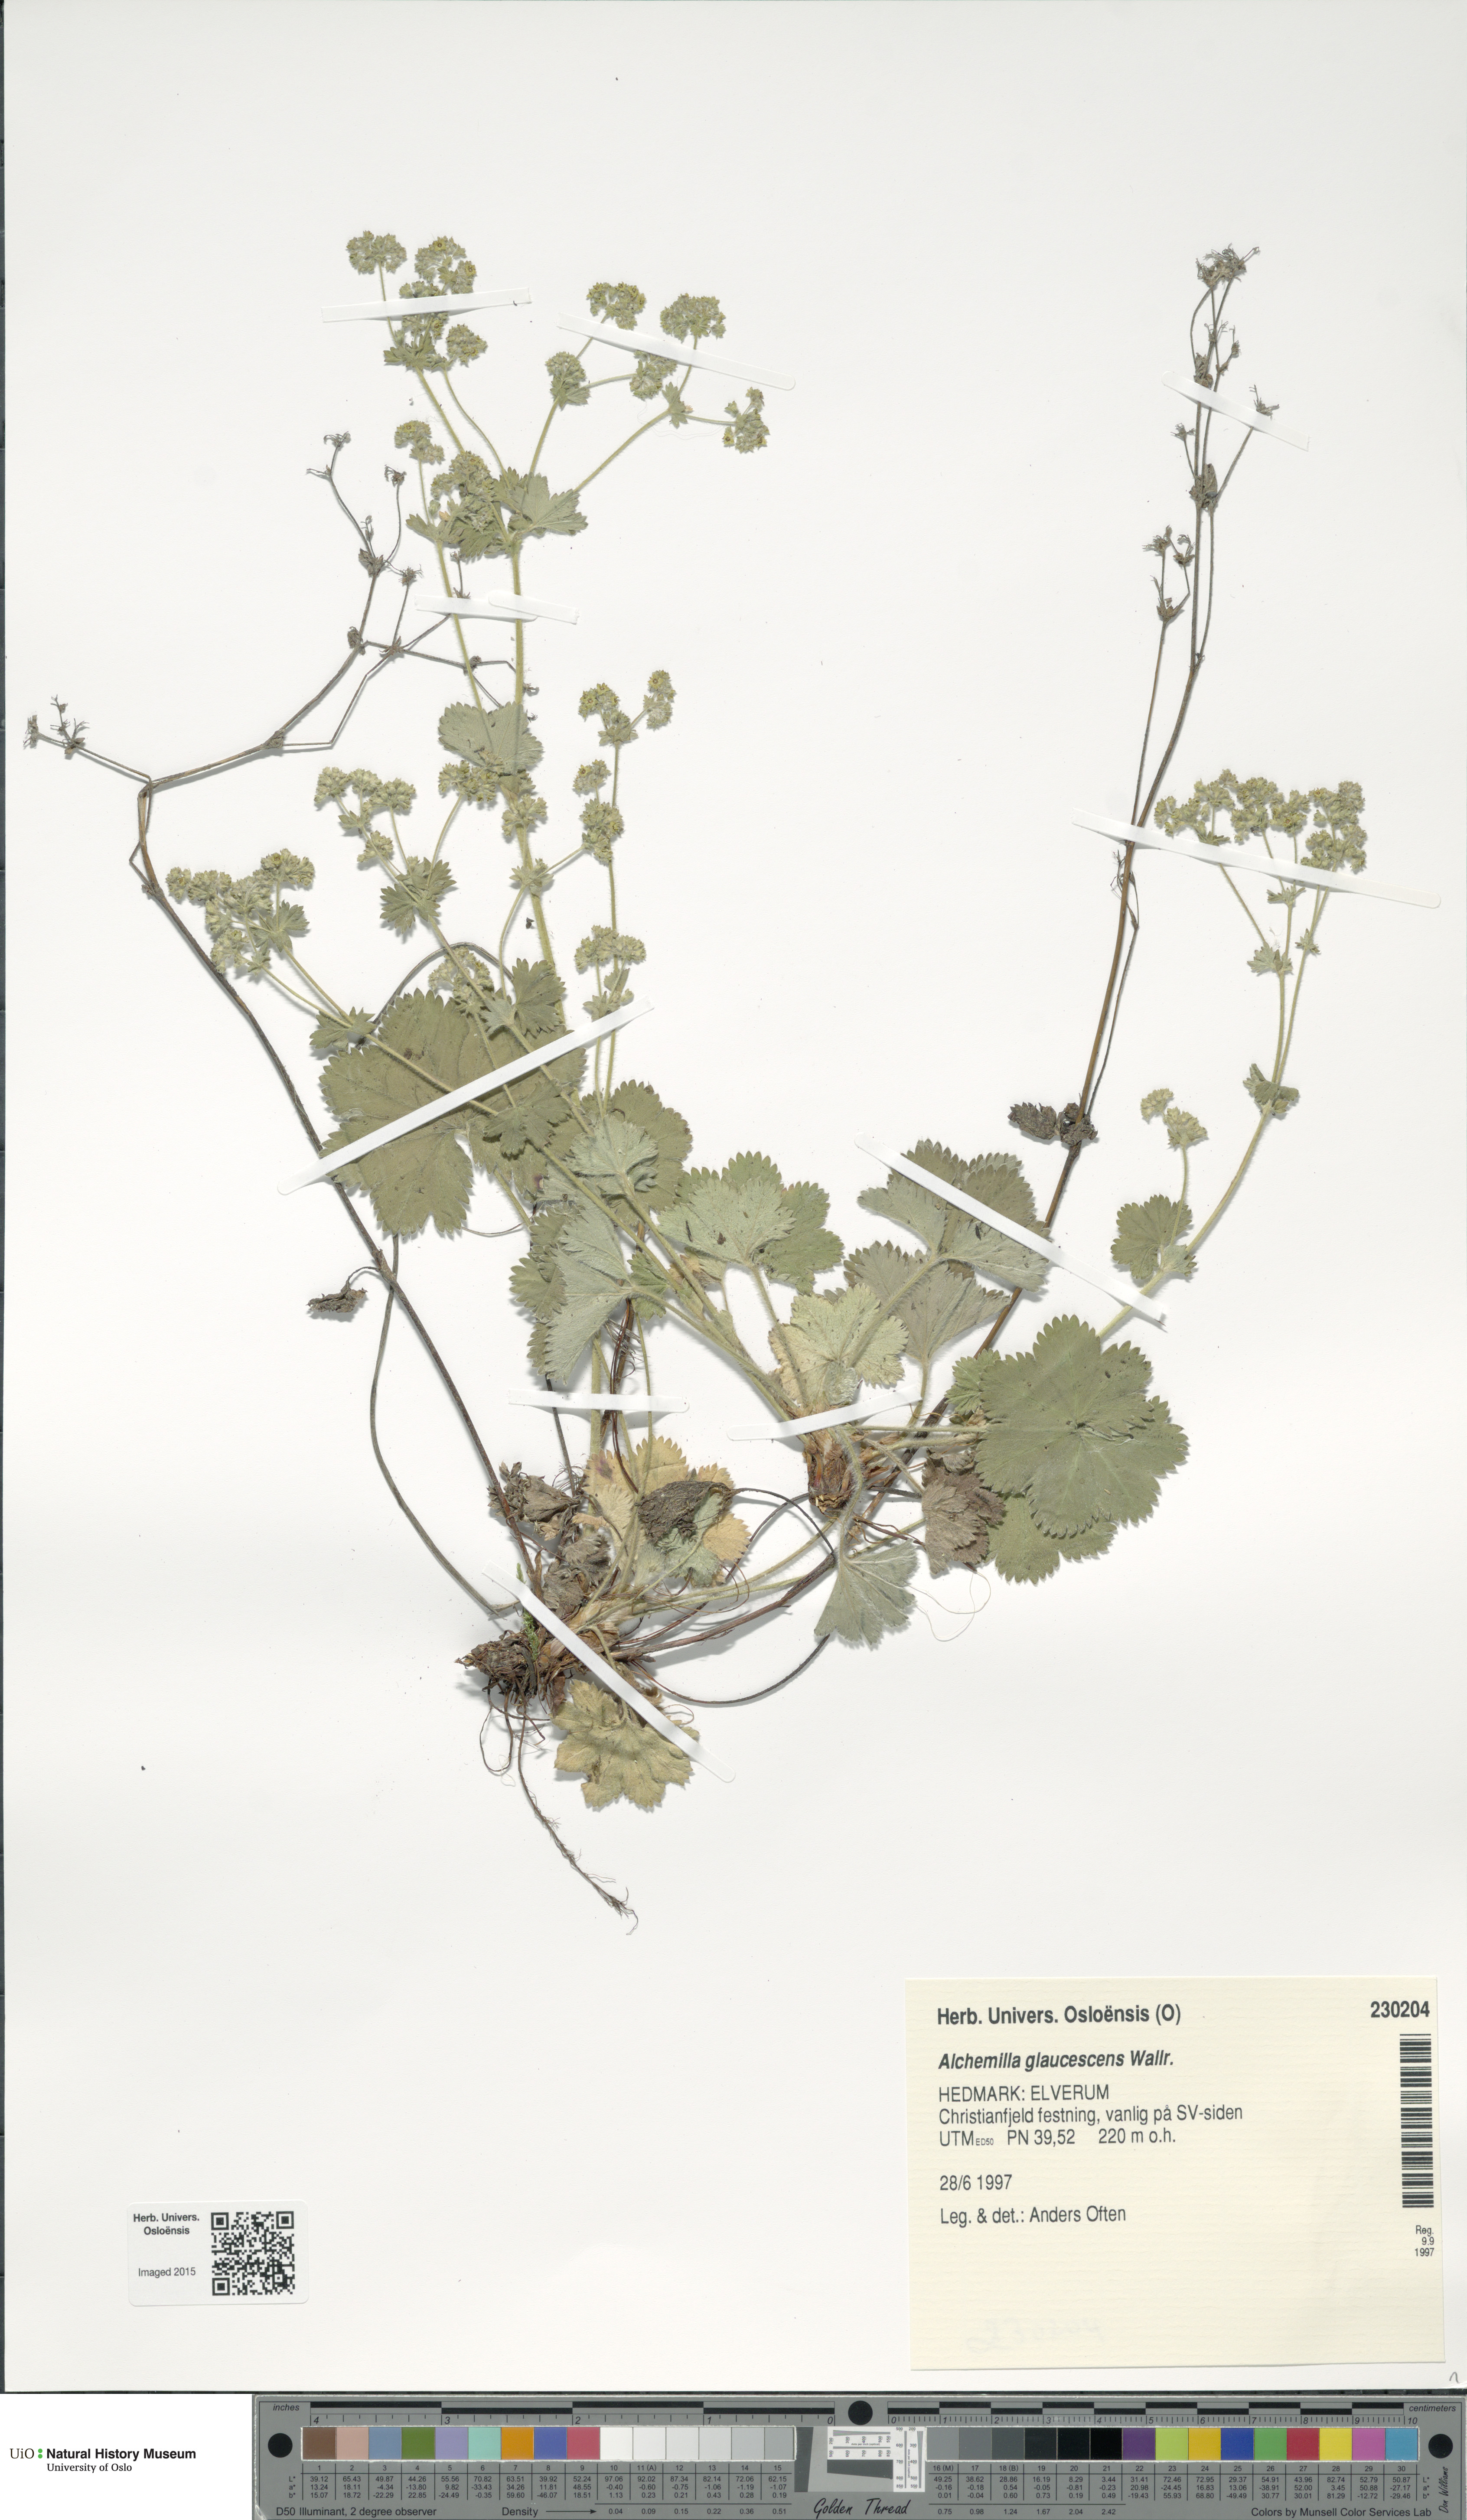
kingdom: Plantae
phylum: Tracheophyta
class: Magnoliopsida
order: Rosales
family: Rosaceae
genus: Alchemilla
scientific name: Alchemilla glaucescens
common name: Silky lady's mantle
